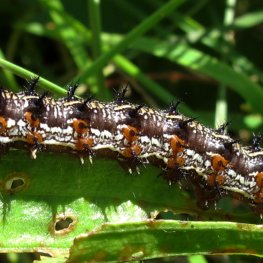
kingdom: Animalia
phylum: Arthropoda
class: Insecta
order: Lepidoptera
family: Nymphalidae
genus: Junonia
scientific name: Junonia coenia
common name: Common Buckeye
